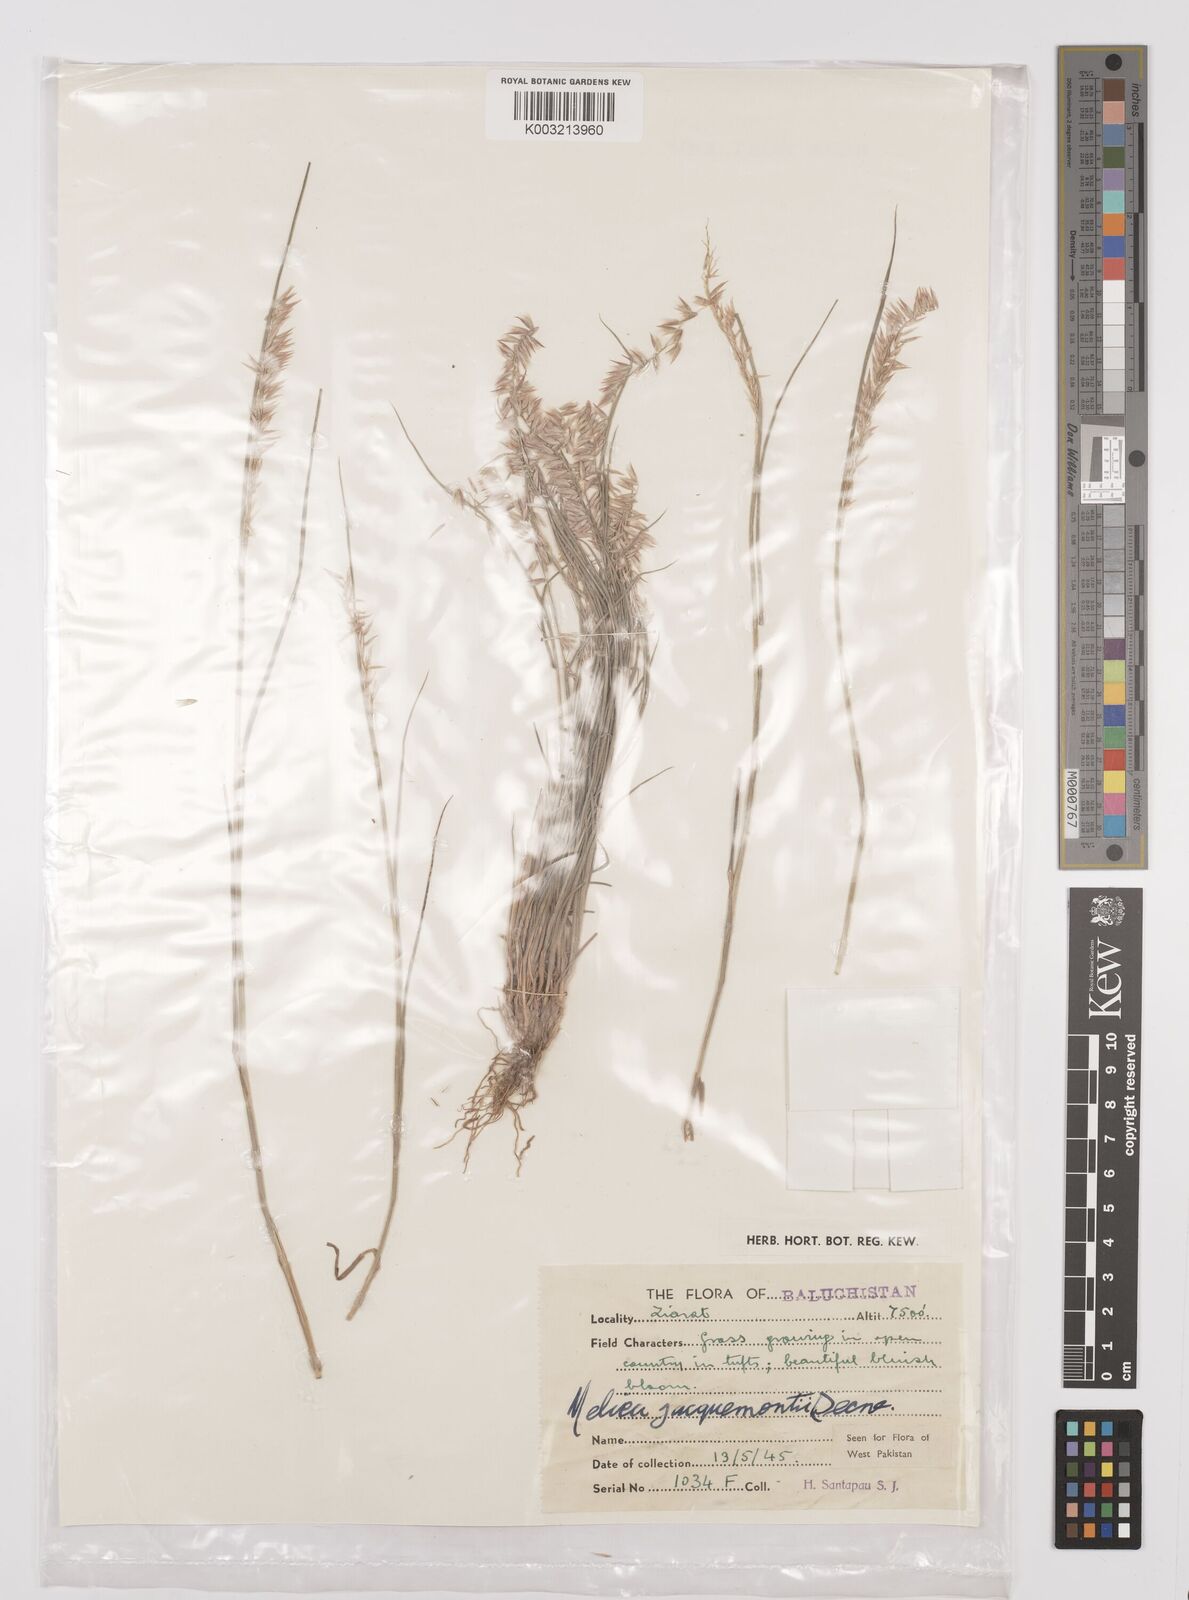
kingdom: Plantae
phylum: Tracheophyta
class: Liliopsida
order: Poales
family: Poaceae
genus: Melica
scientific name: Melica persica
